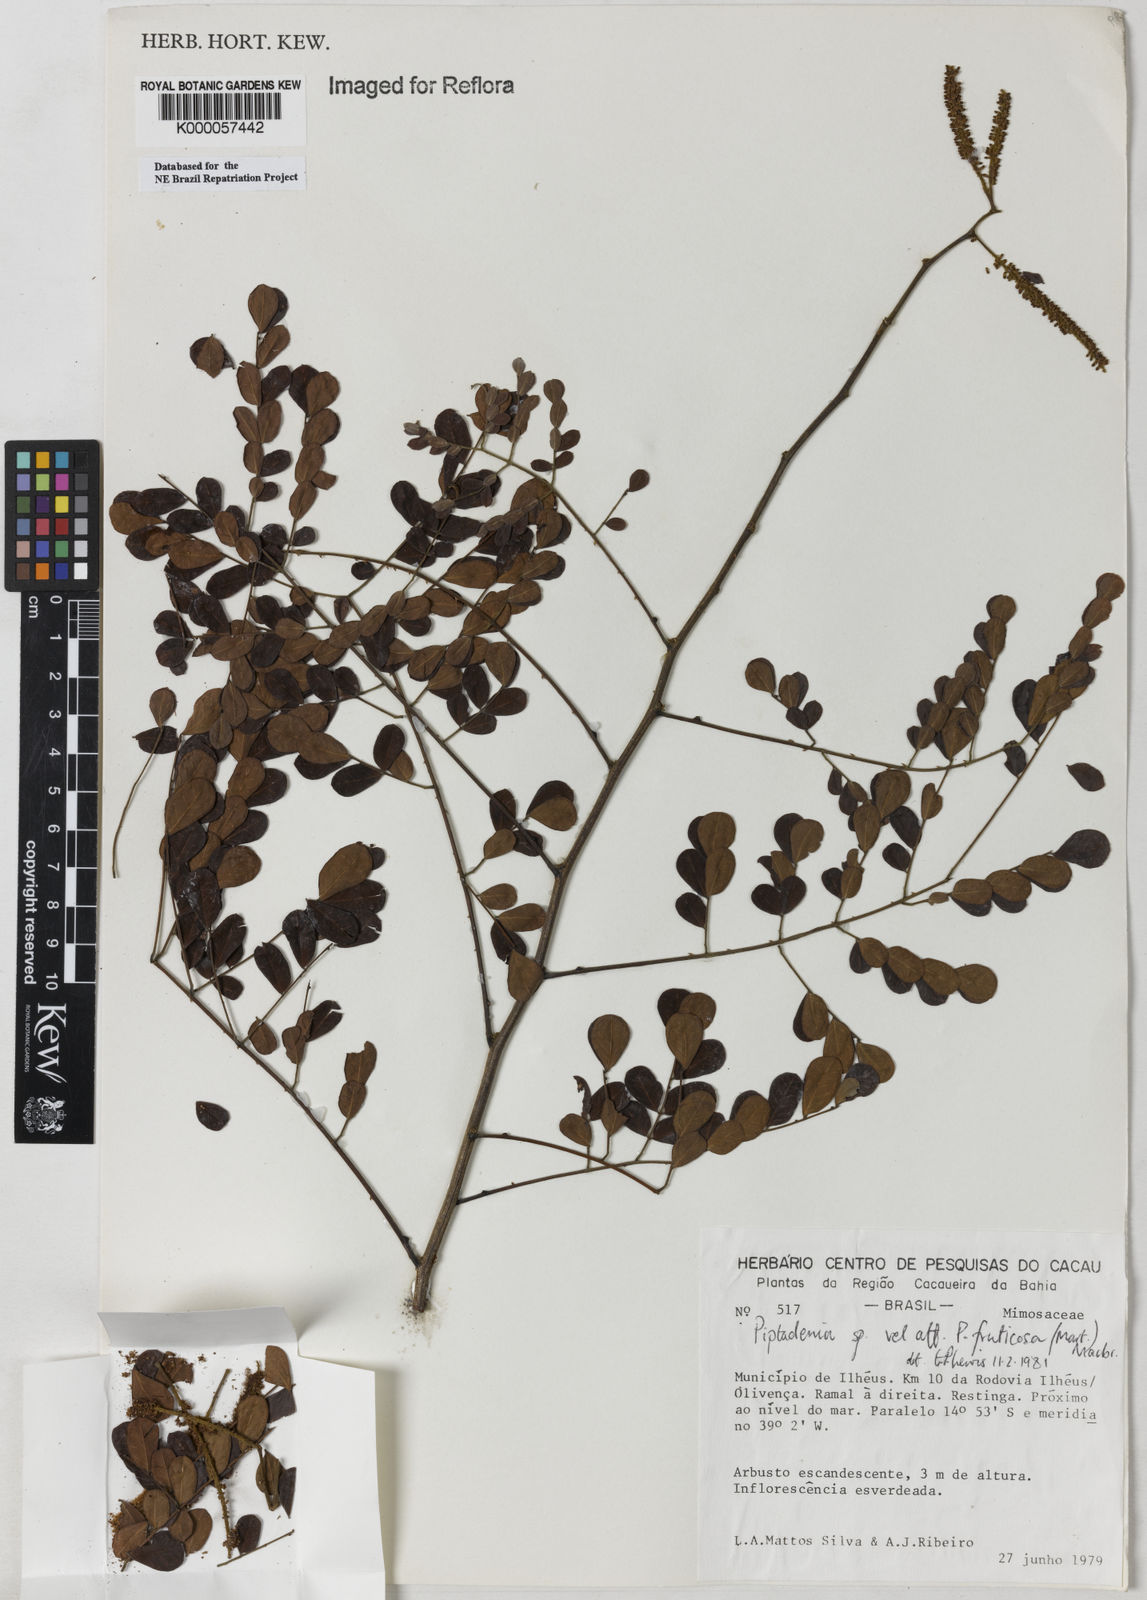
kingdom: Plantae
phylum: Tracheophyta
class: Magnoliopsida
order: Fabales
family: Fabaceae
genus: Piptadenia
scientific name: Piptadenia adiantoides
